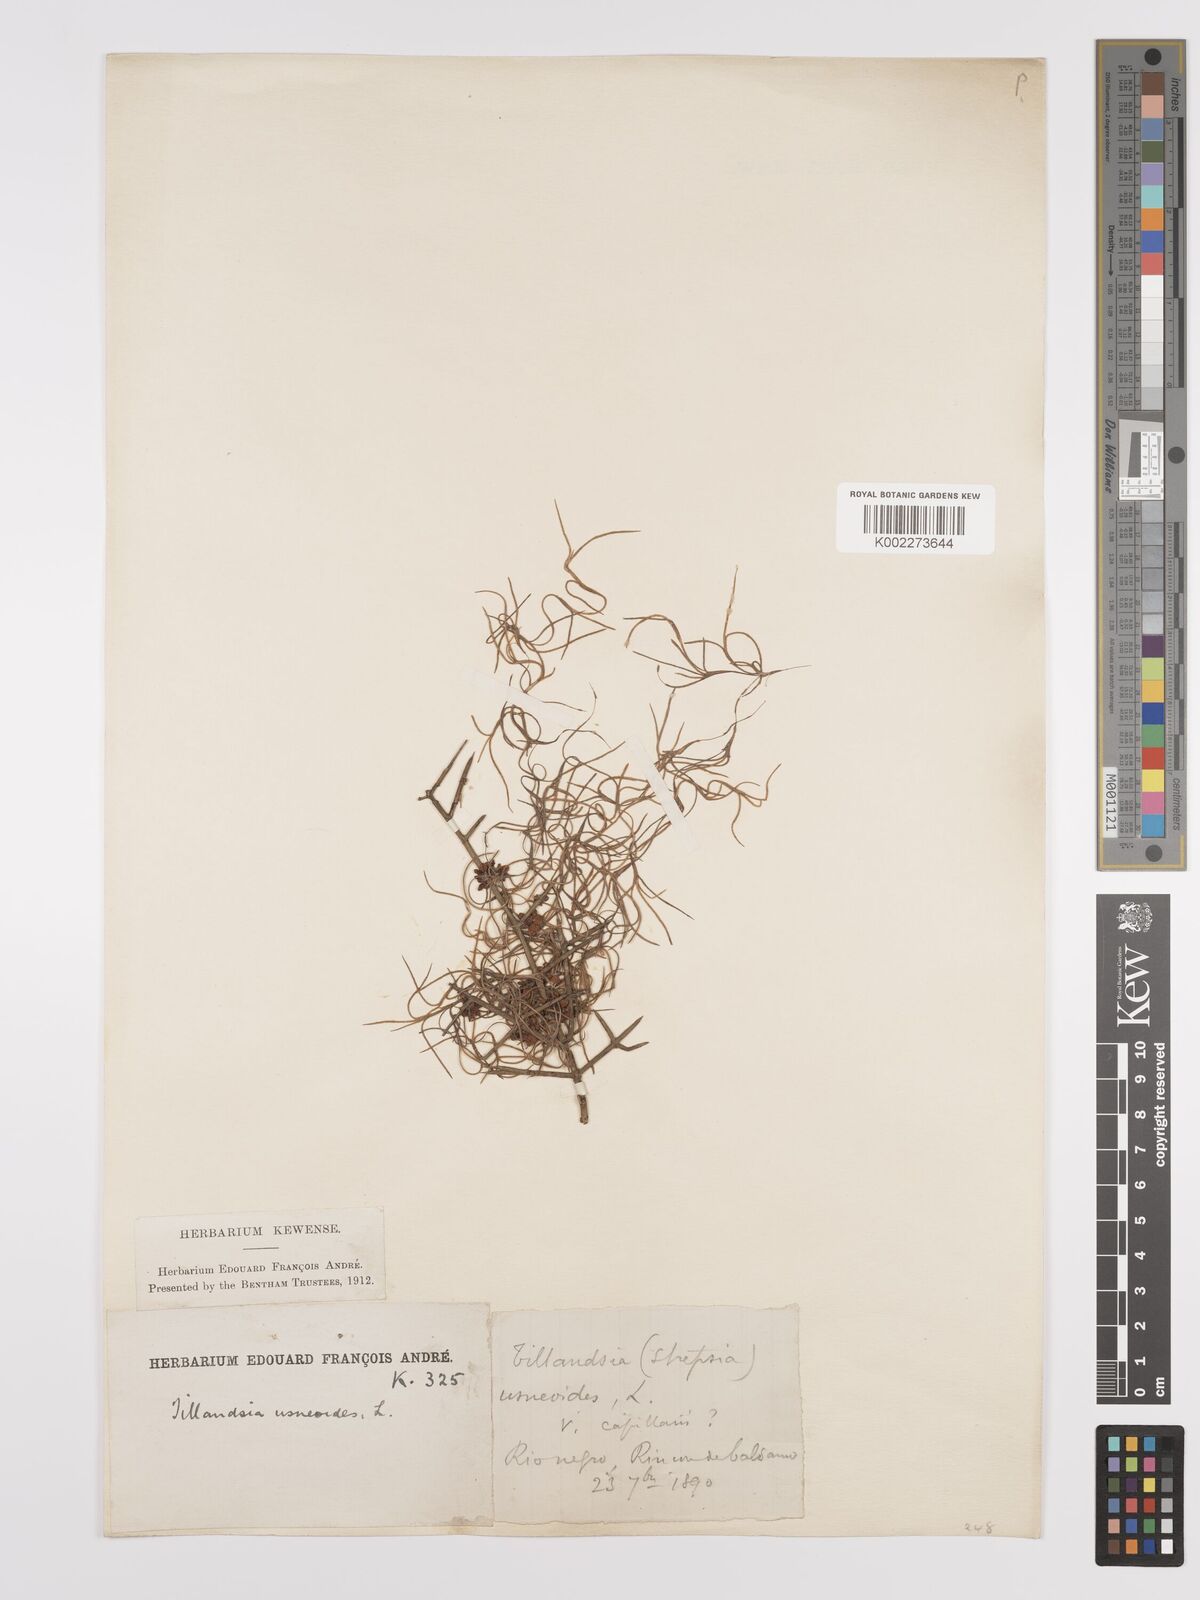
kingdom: Plantae
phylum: Tracheophyta
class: Liliopsida
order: Poales
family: Bromeliaceae
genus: Tillandsia
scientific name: Tillandsia usneoides
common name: Spanish moss
